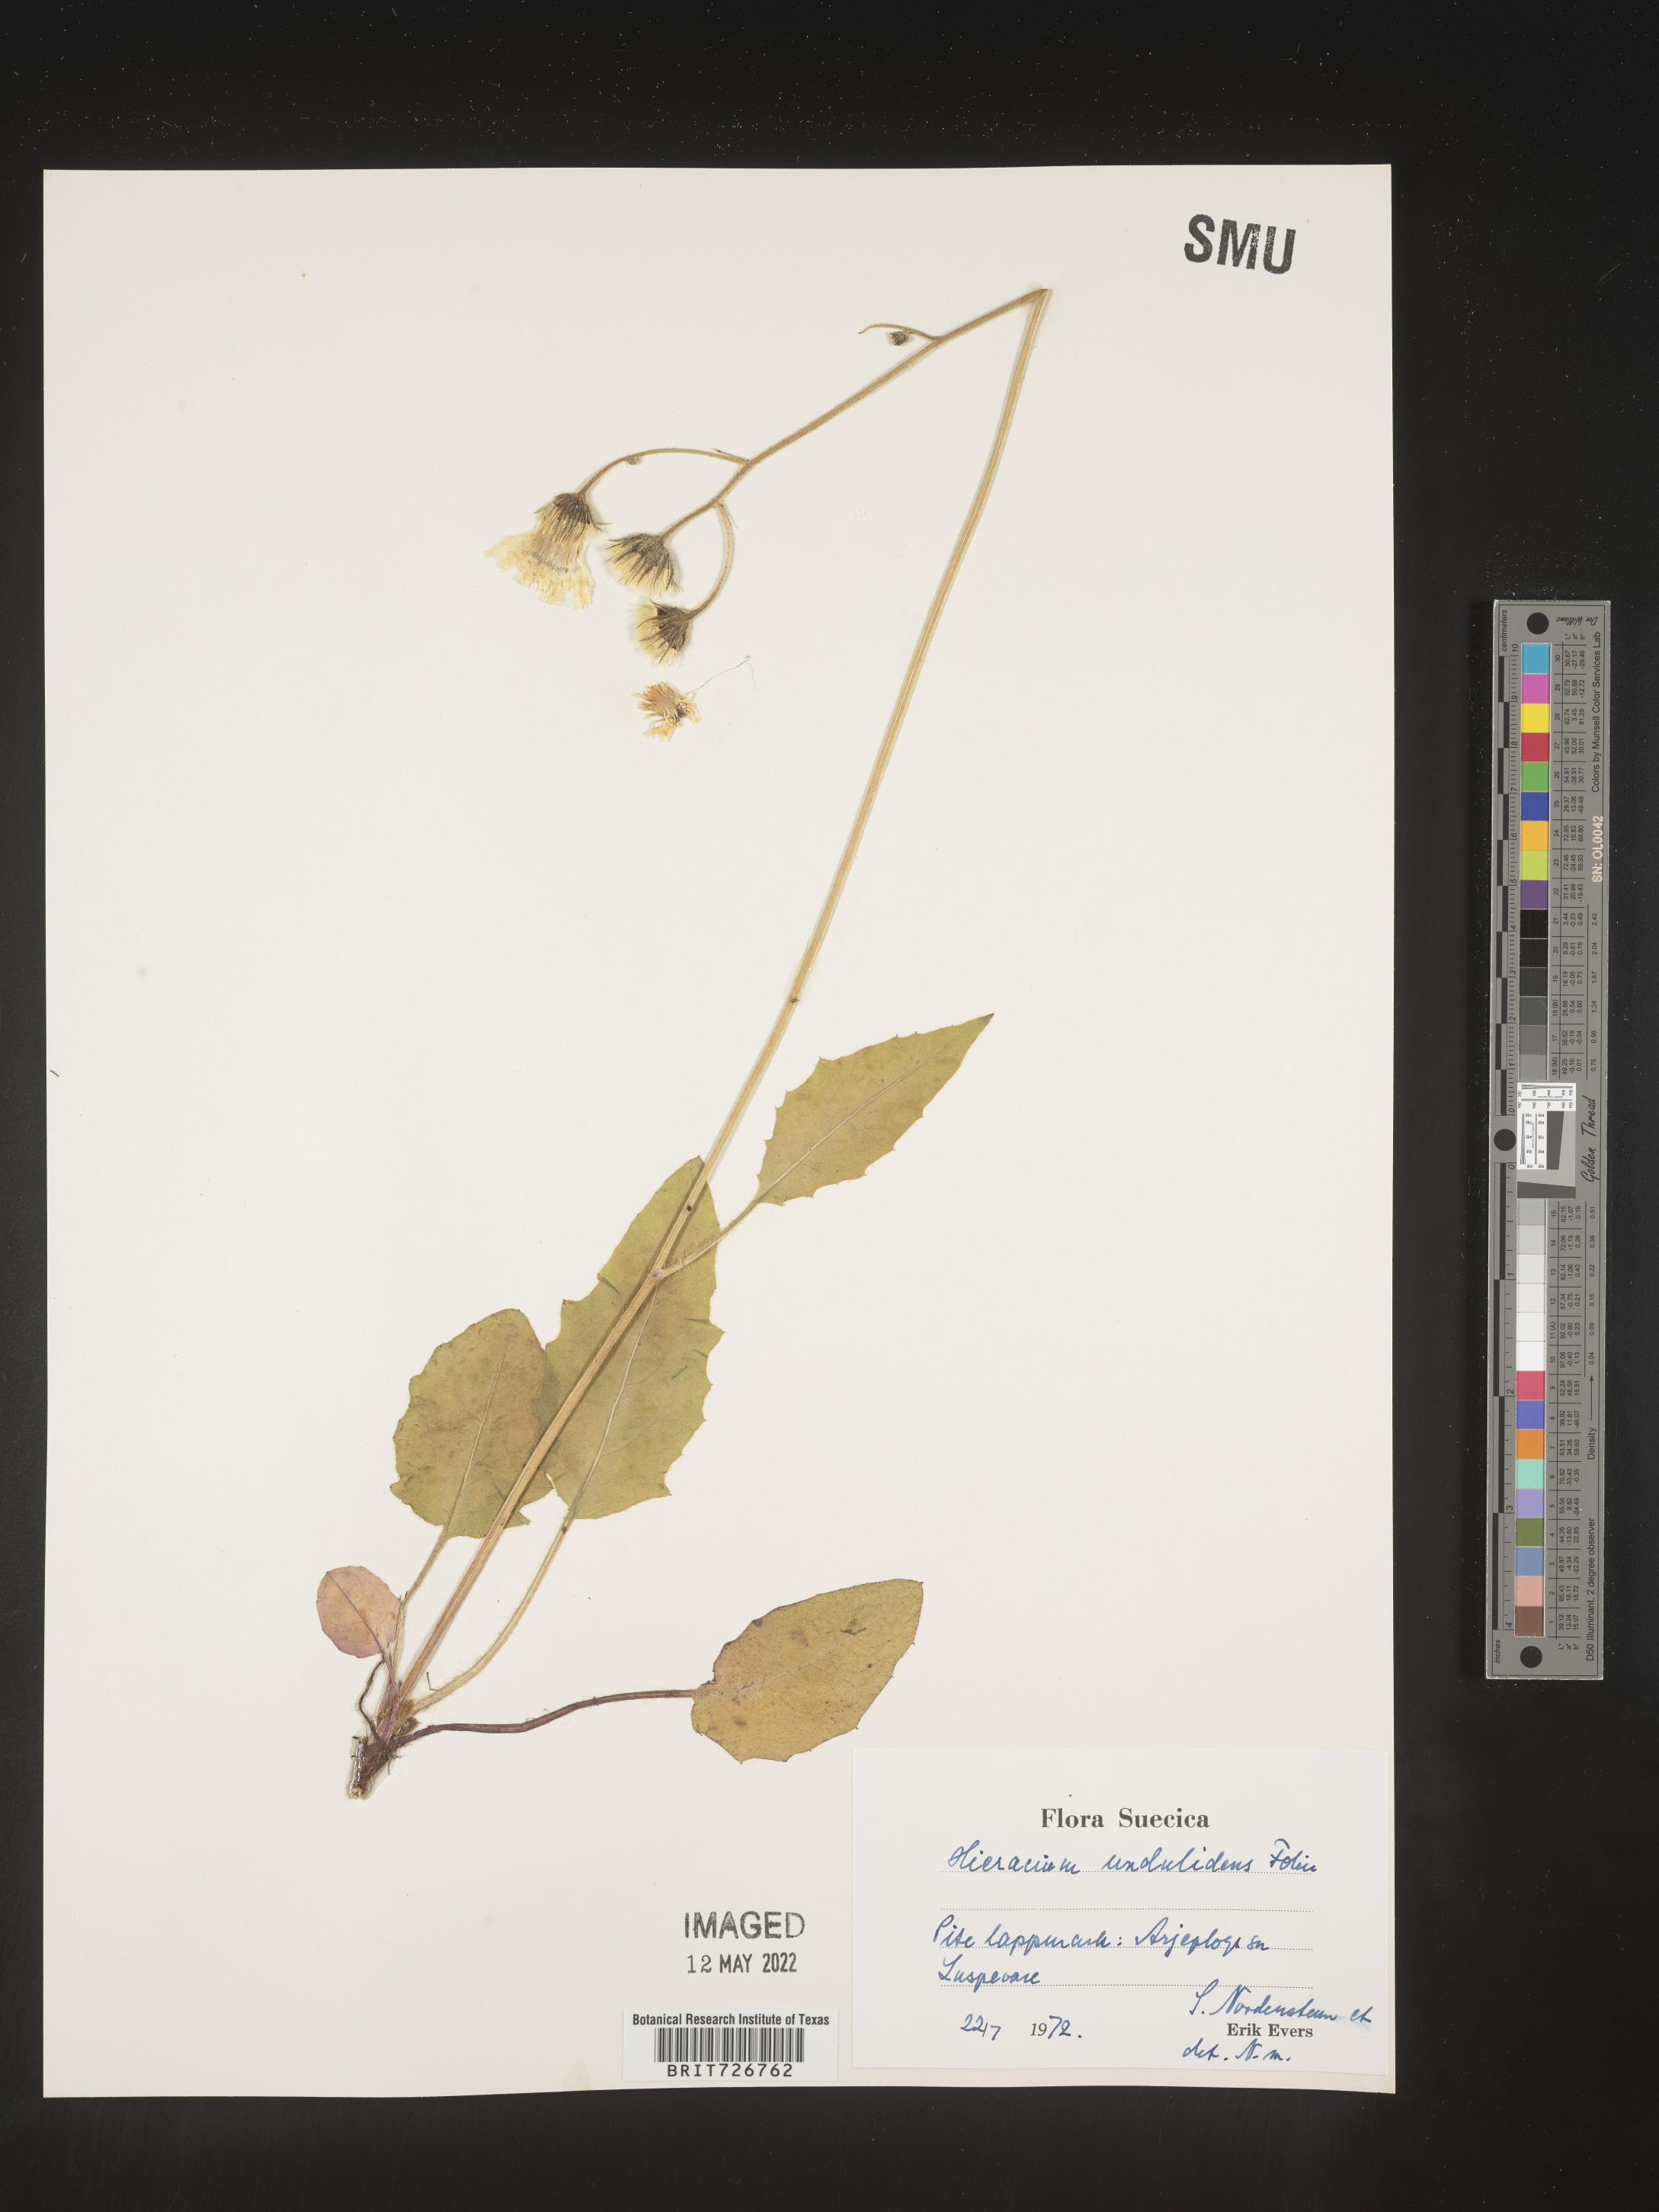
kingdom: Plantae
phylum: Tracheophyta
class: Magnoliopsida
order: Asterales
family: Asteraceae
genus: Hieracium
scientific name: Hieracium
